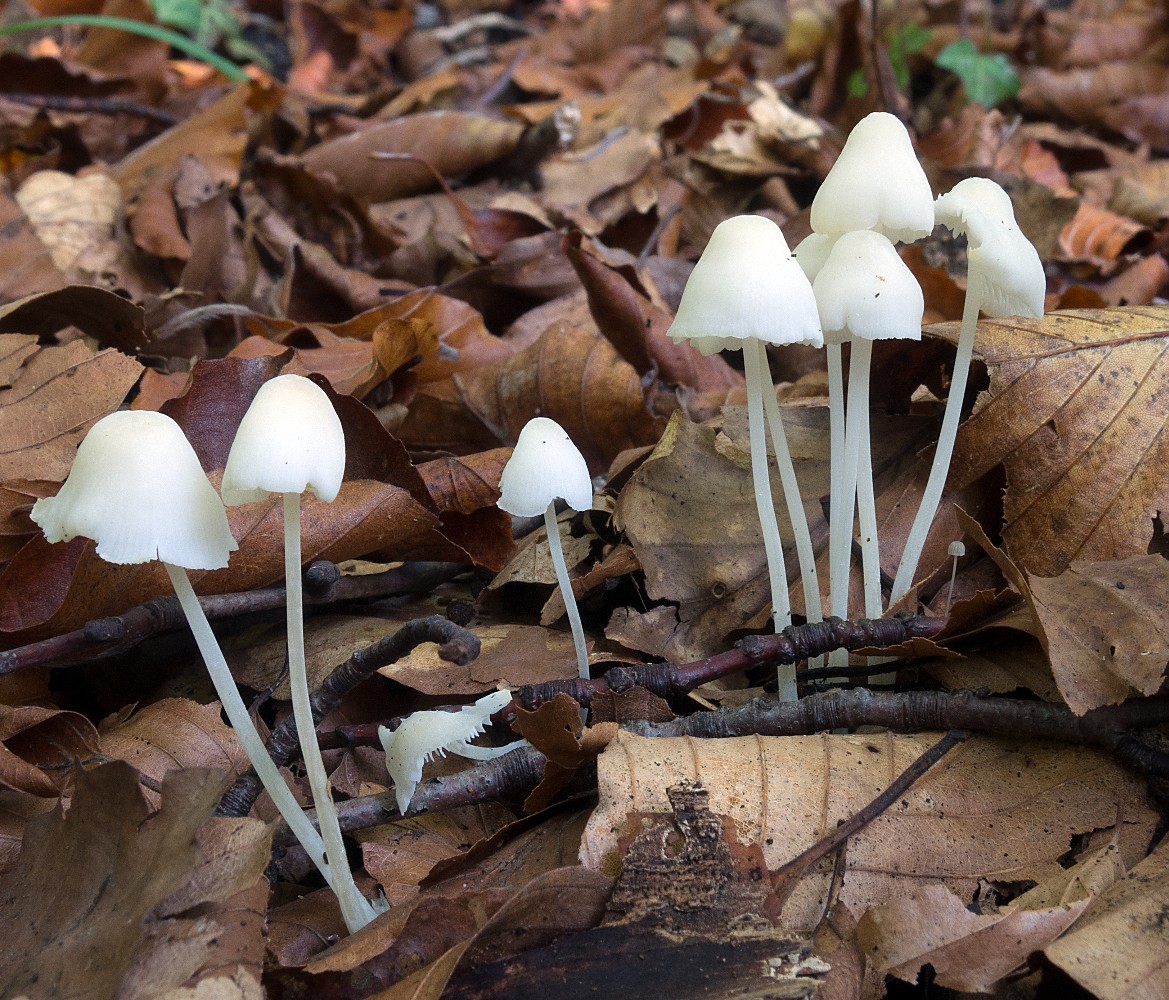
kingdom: Fungi
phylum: Basidiomycota
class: Agaricomycetes
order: Agaricales
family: Mycenaceae
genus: Hemimycena
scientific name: Hemimycena cucullata
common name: tætbladet huesvamp
